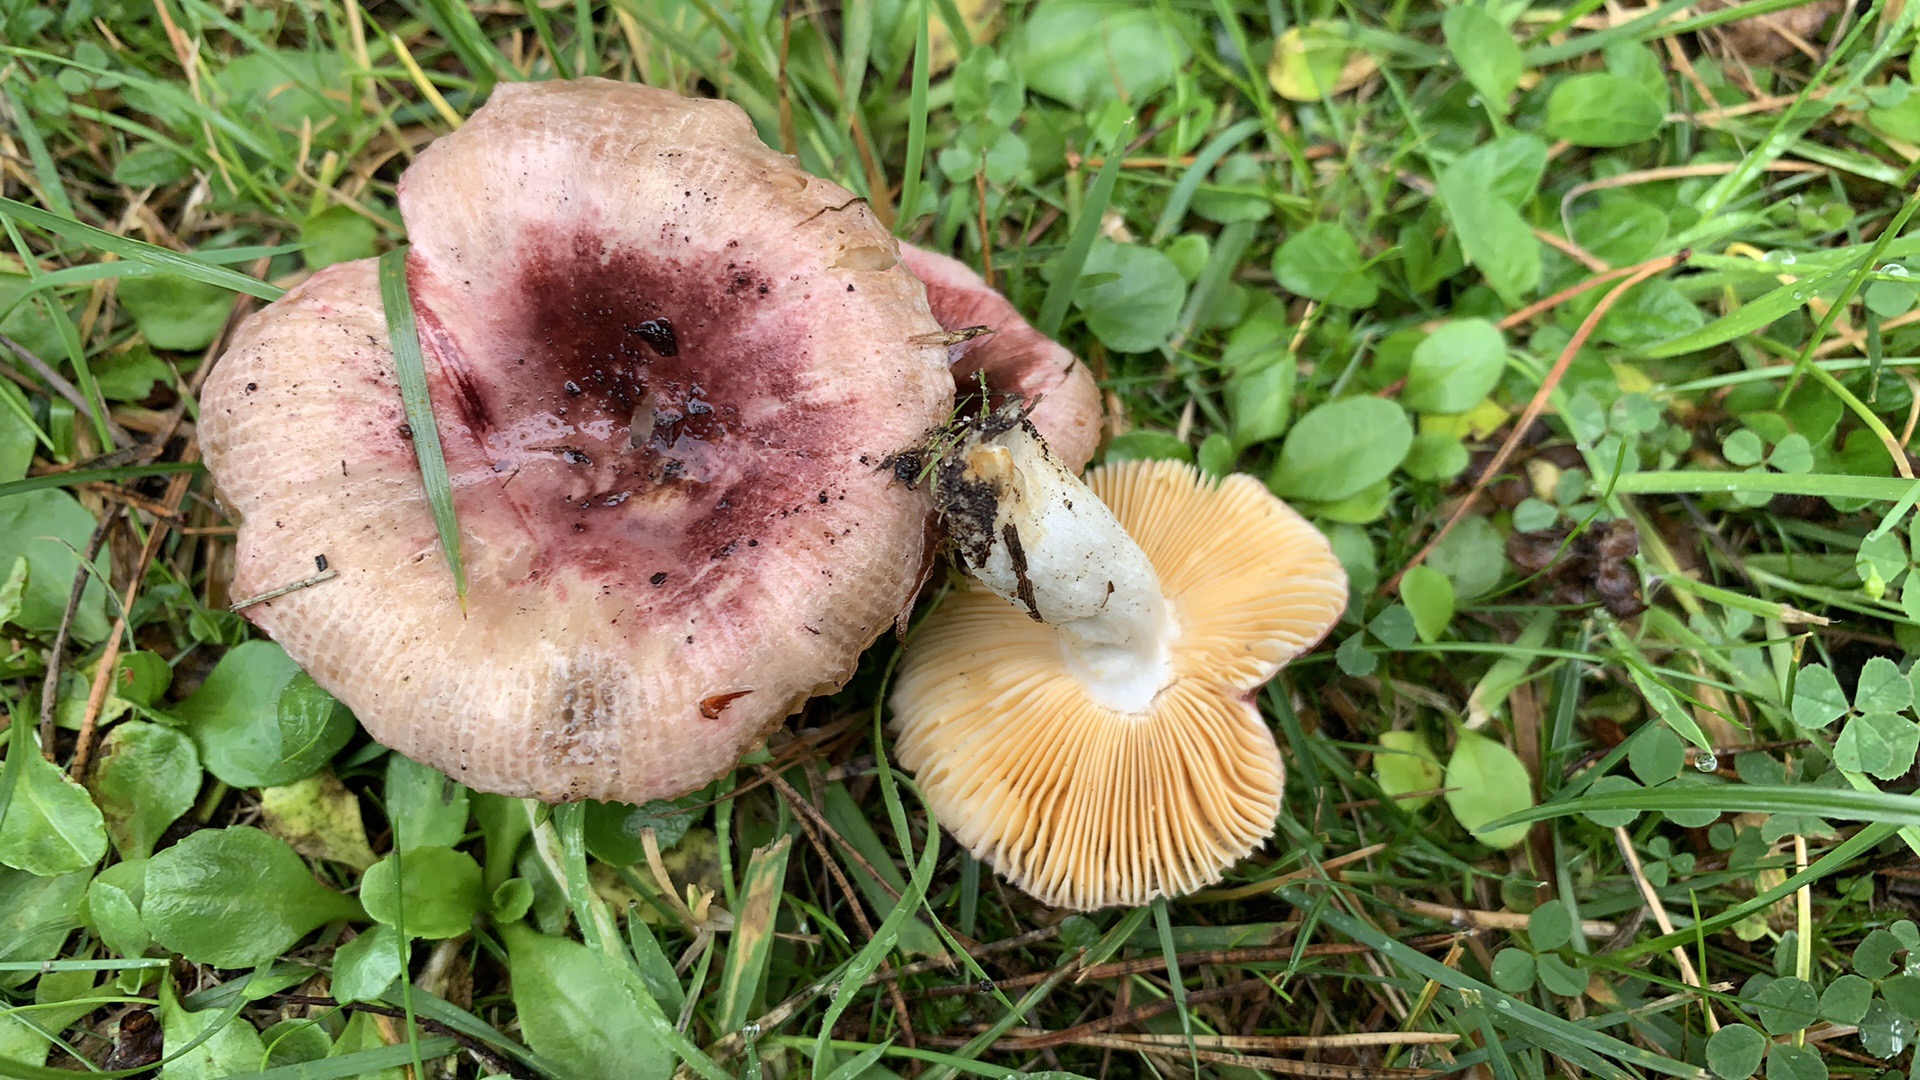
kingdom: Fungi
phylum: Basidiomycota
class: Agaricomycetes
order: Russulales
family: Russulaceae
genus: Russula
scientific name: Russula cessans
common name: fyrre-skørhat
